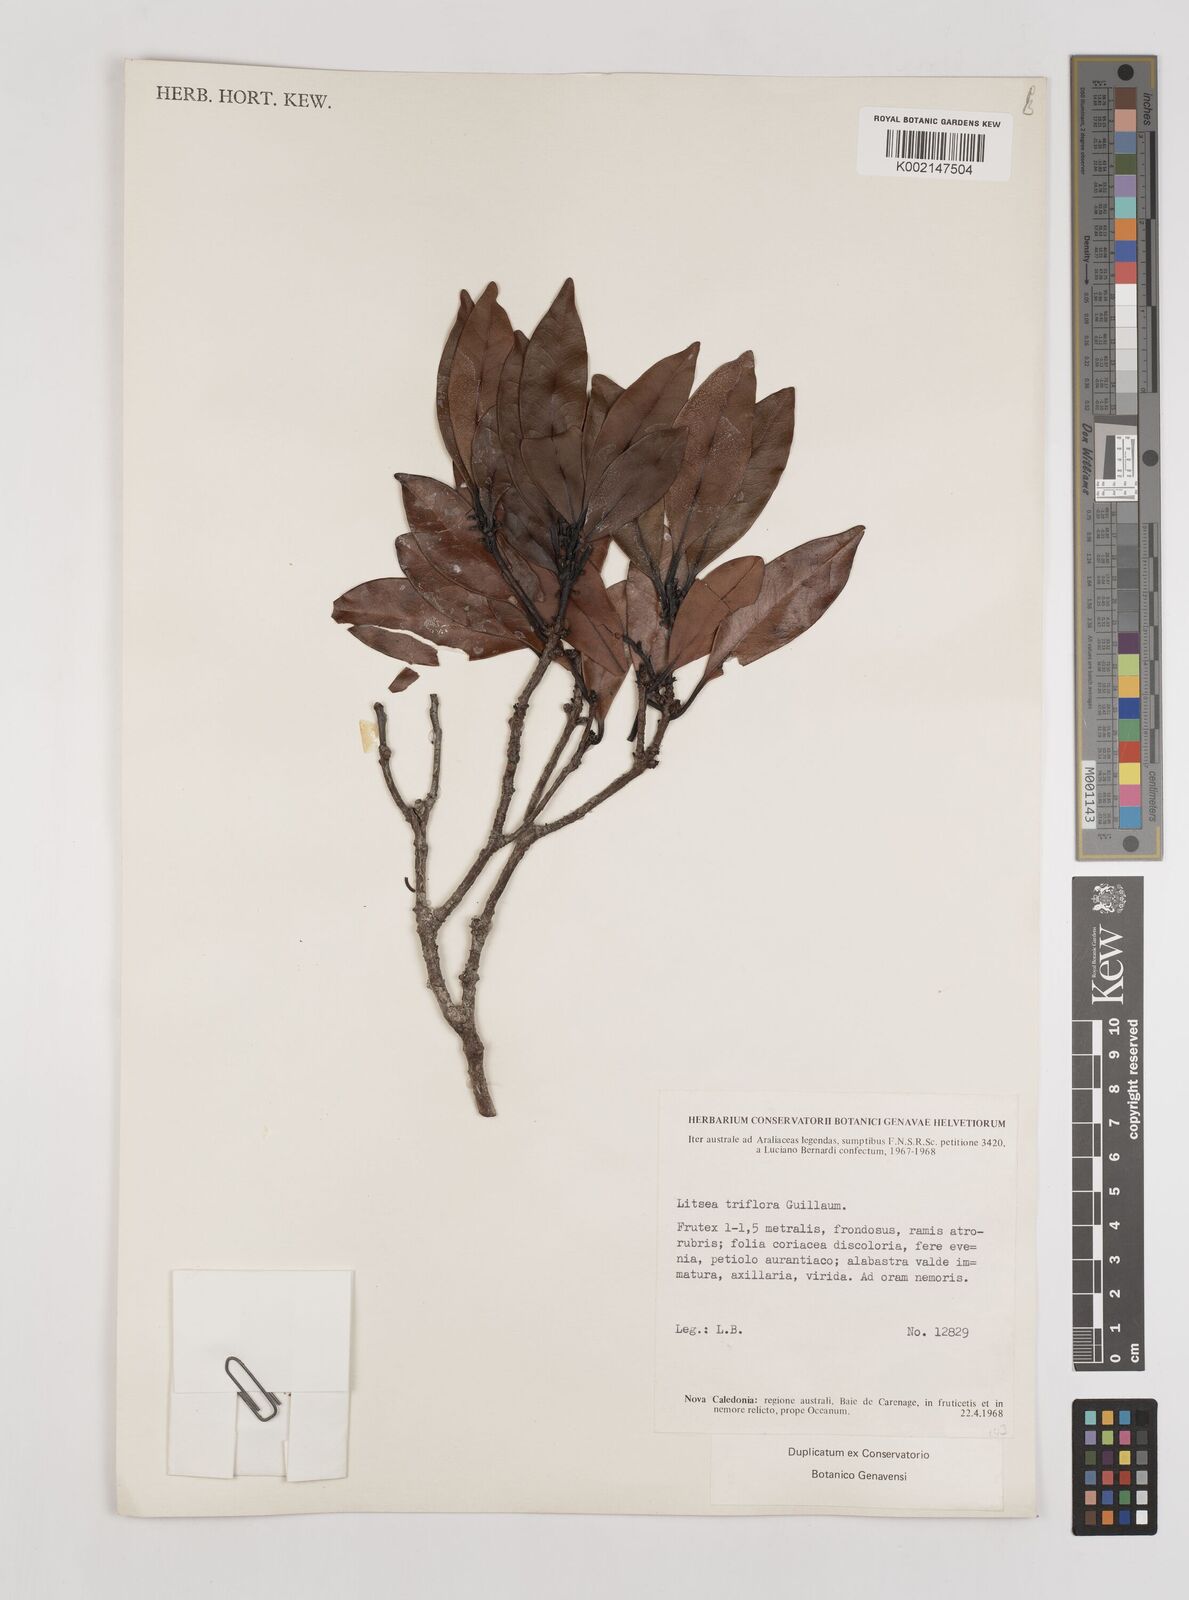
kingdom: Plantae
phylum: Tracheophyta
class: Magnoliopsida
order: Laurales
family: Lauraceae
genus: Litsea
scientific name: Litsea triflora
